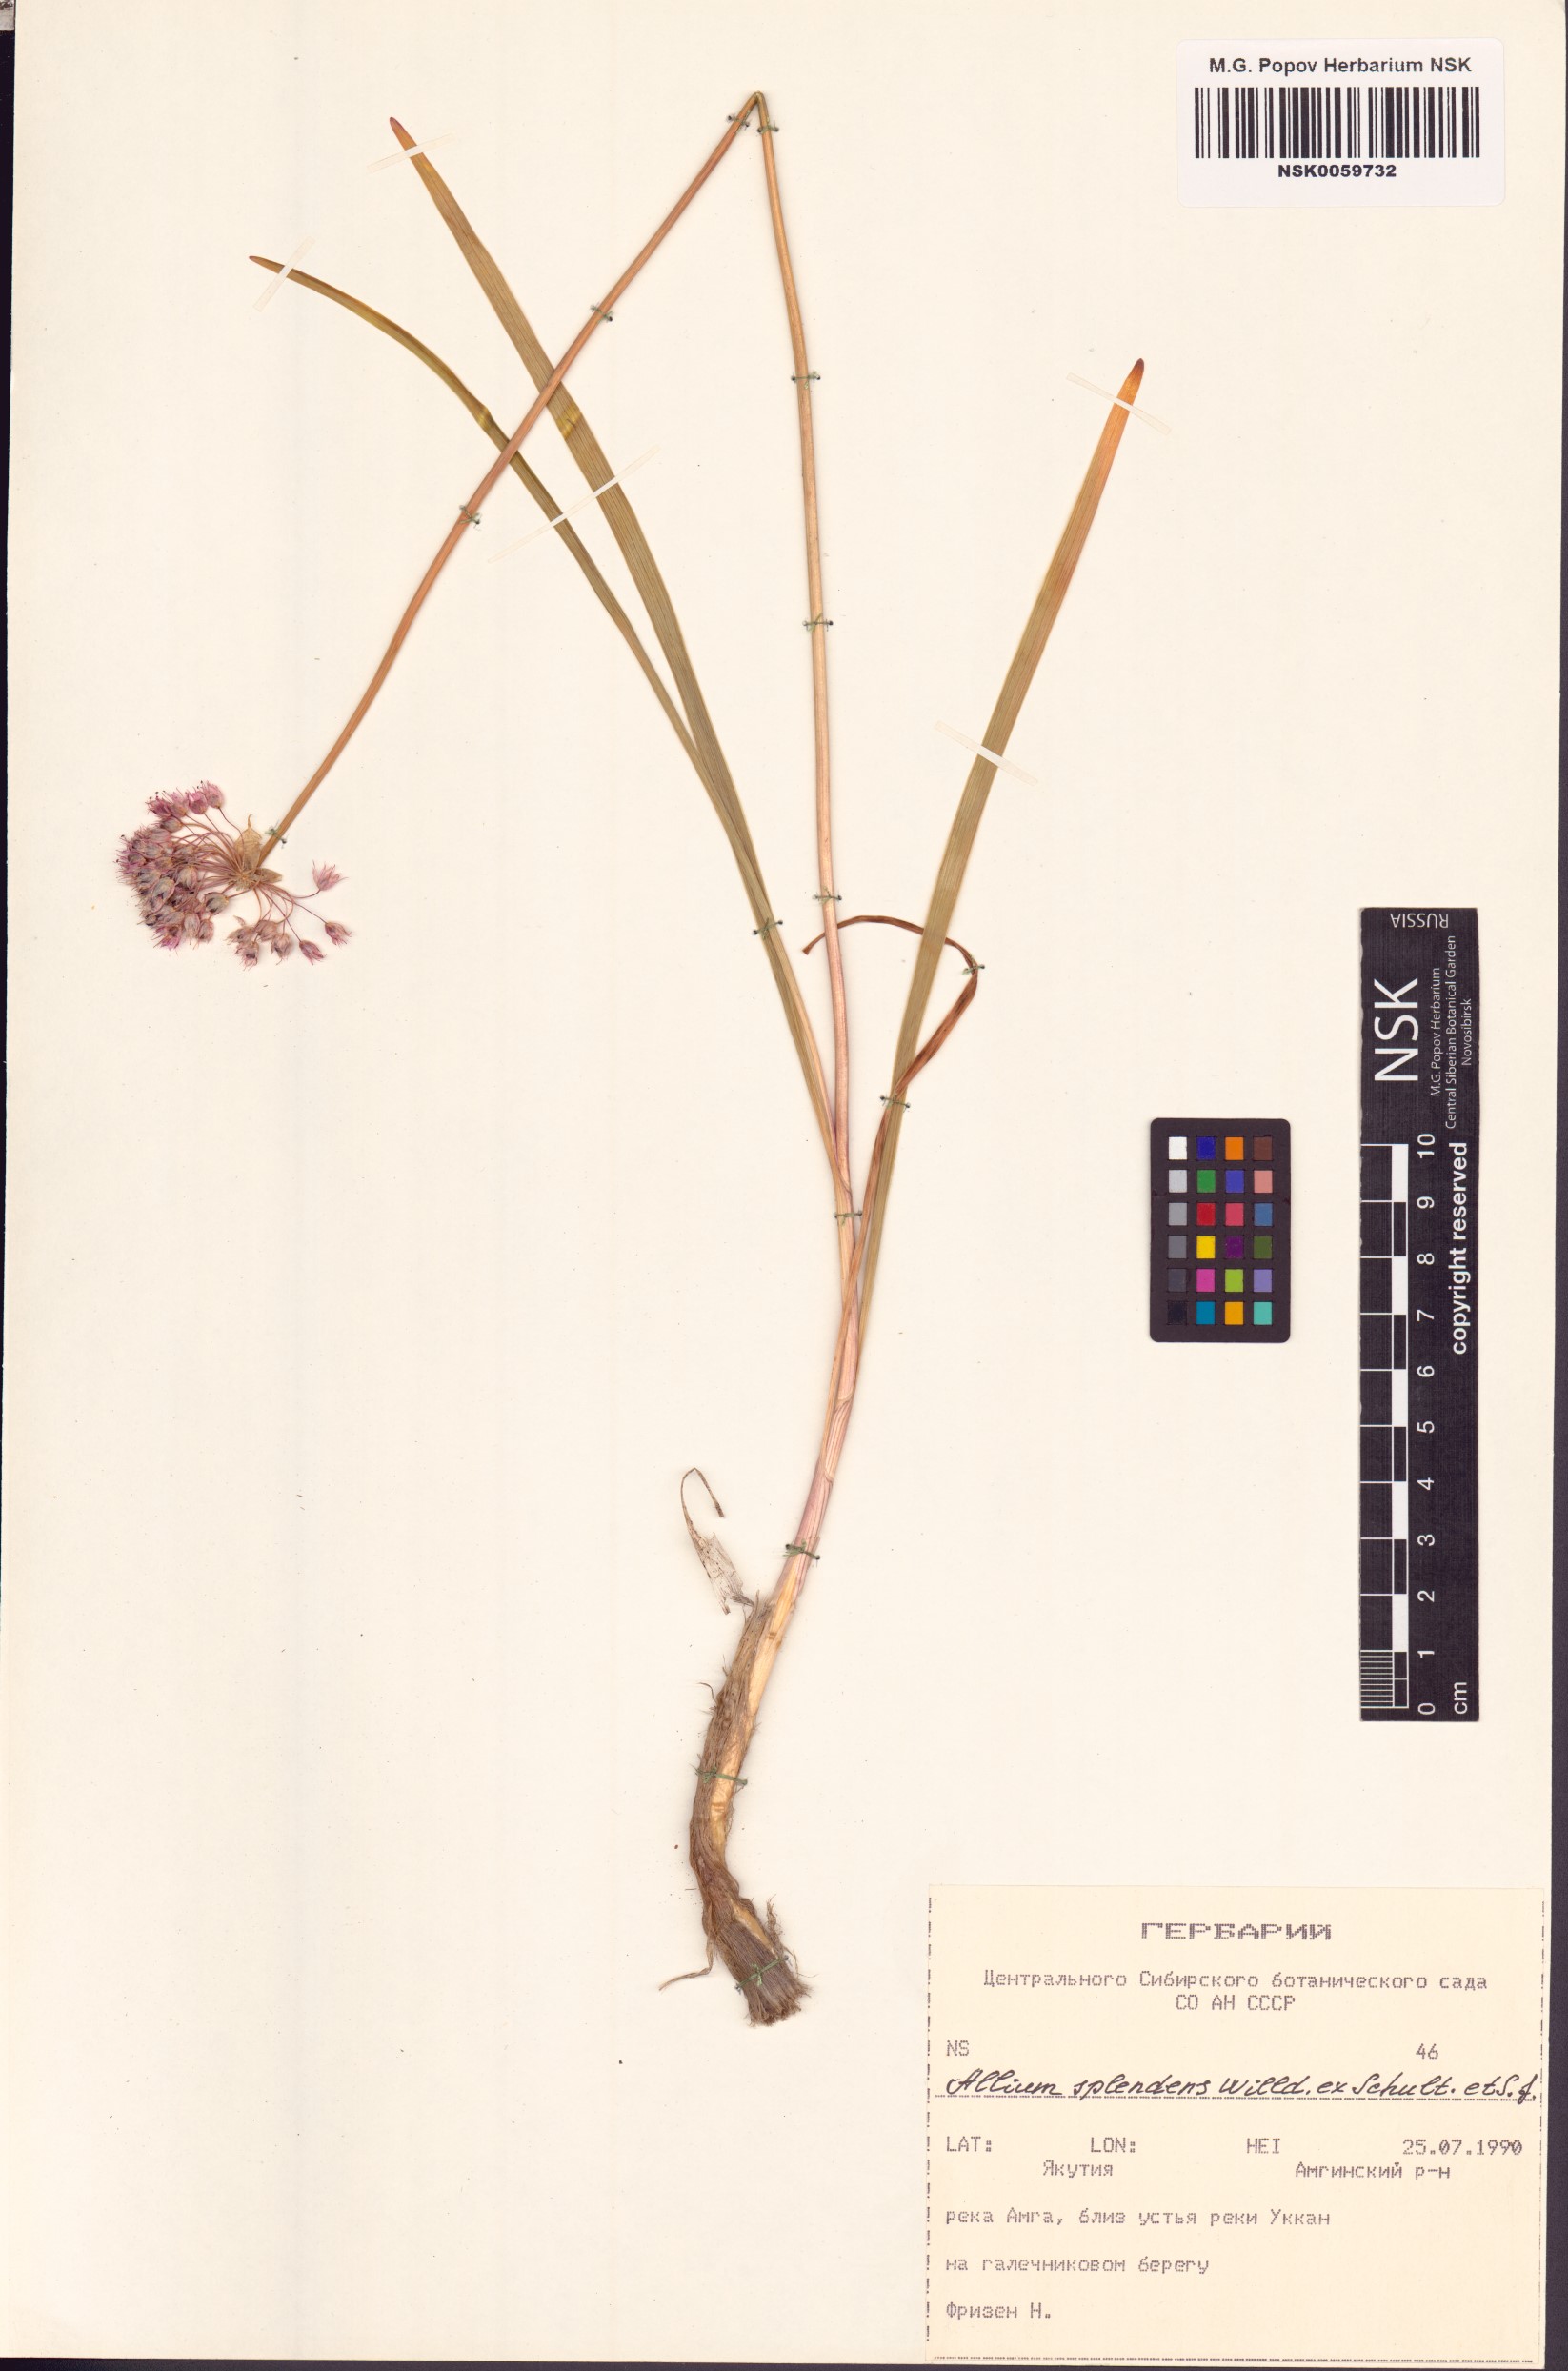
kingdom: Plantae
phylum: Tracheophyta
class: Liliopsida
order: Asparagales
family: Amaryllidaceae
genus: Allium
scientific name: Allium splendens
